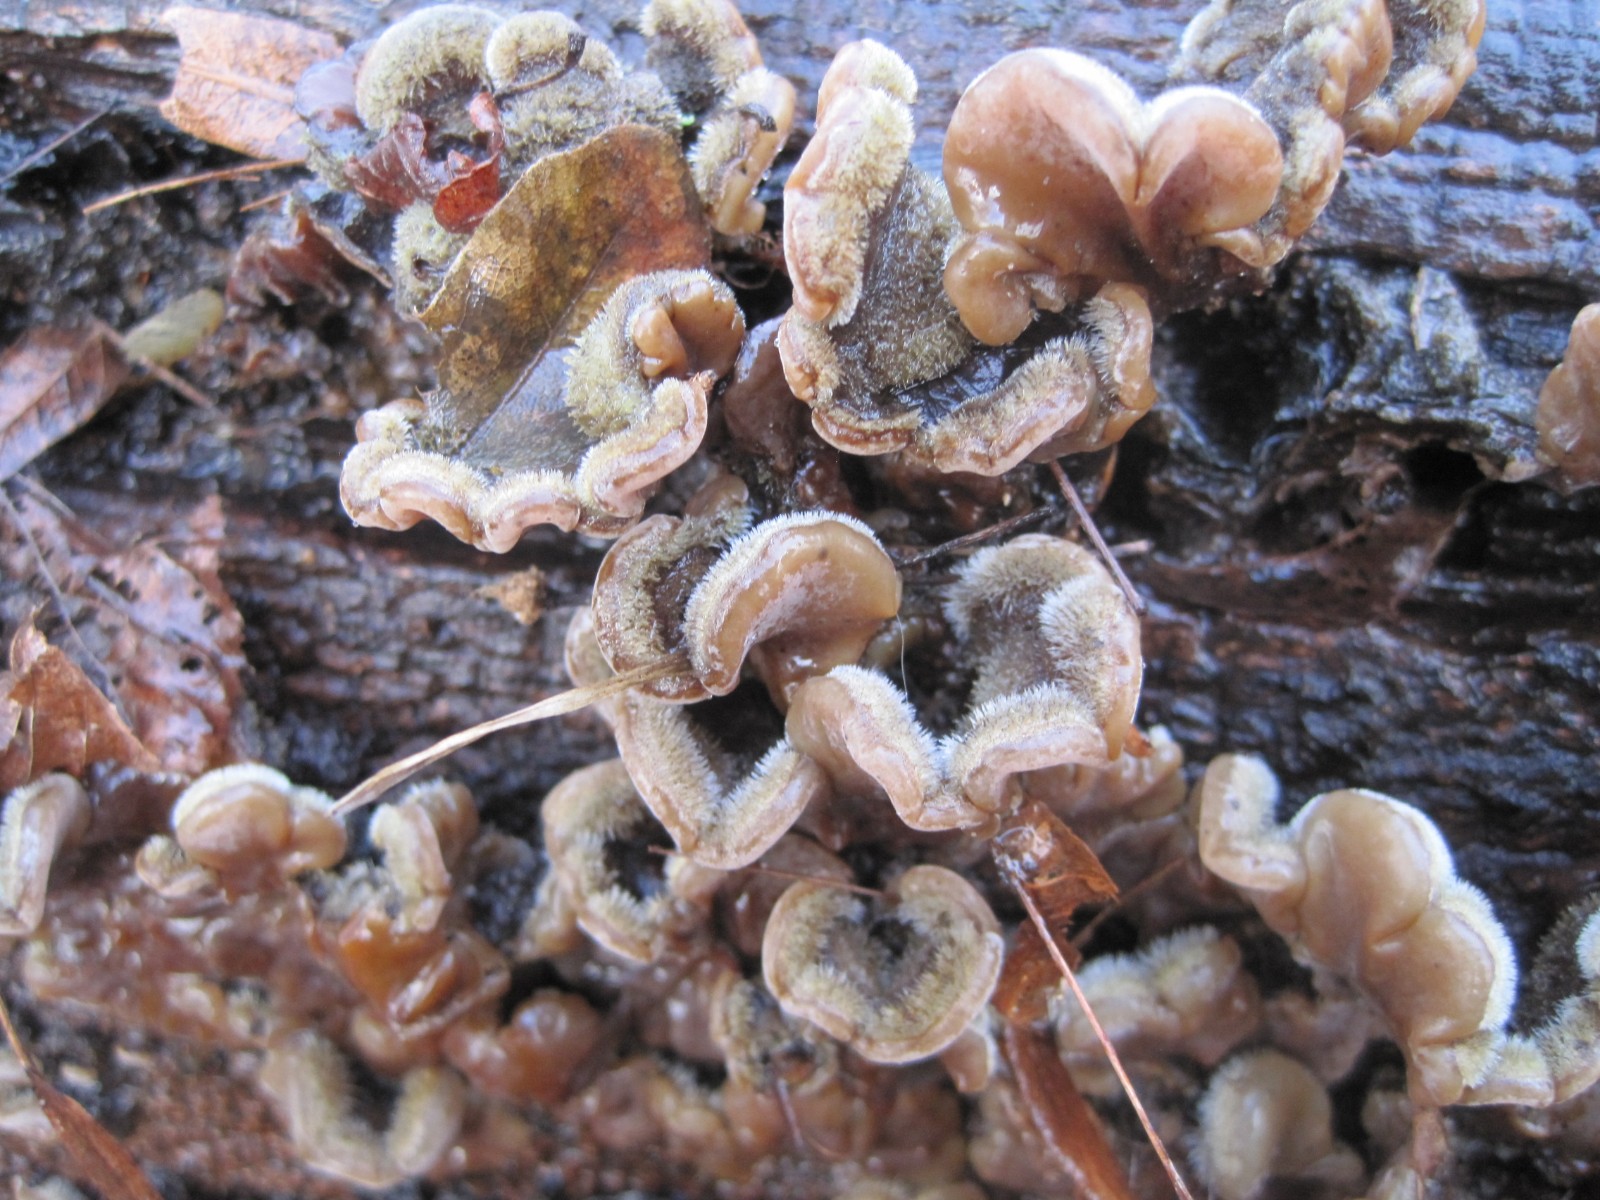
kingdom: Fungi
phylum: Basidiomycota
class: Agaricomycetes
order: Auriculariales
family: Auriculariaceae
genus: Auricularia
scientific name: Auricularia mesenterica
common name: håret judasøre
